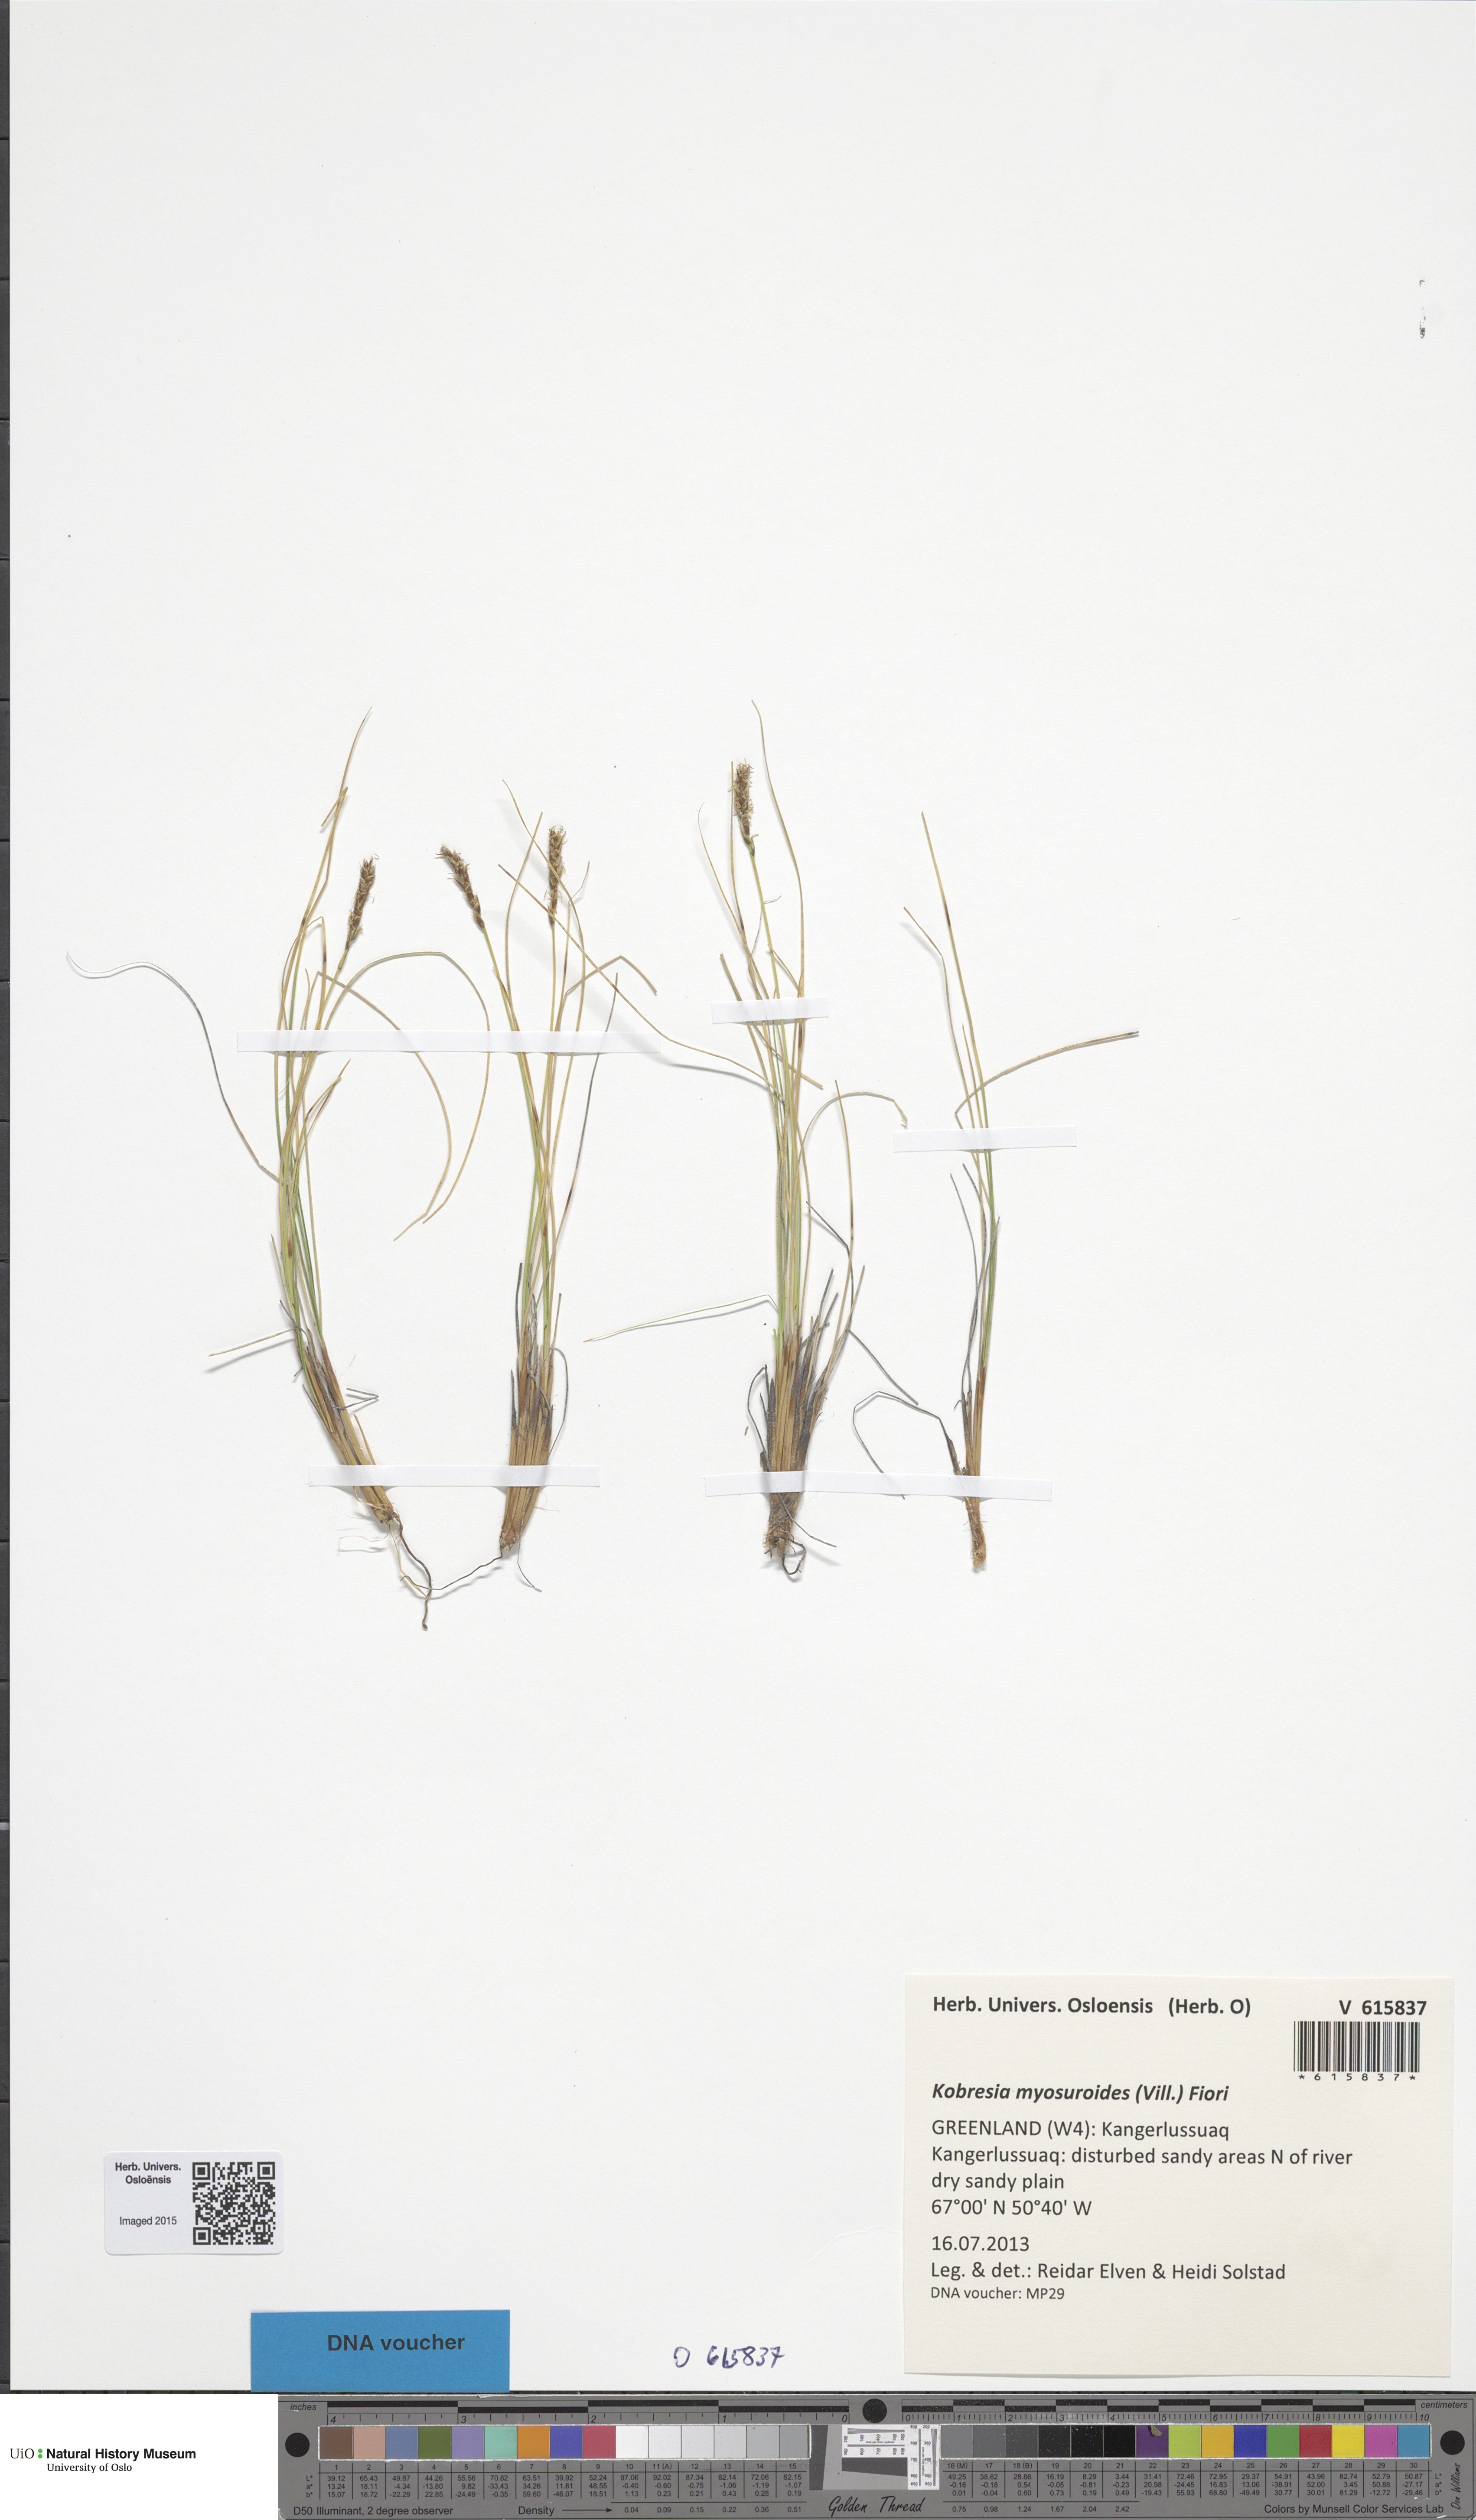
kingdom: Plantae
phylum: Tracheophyta
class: Liliopsida
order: Poales
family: Cyperaceae
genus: Carex
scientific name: Carex myosuroides
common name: Bellard's bog sedge
